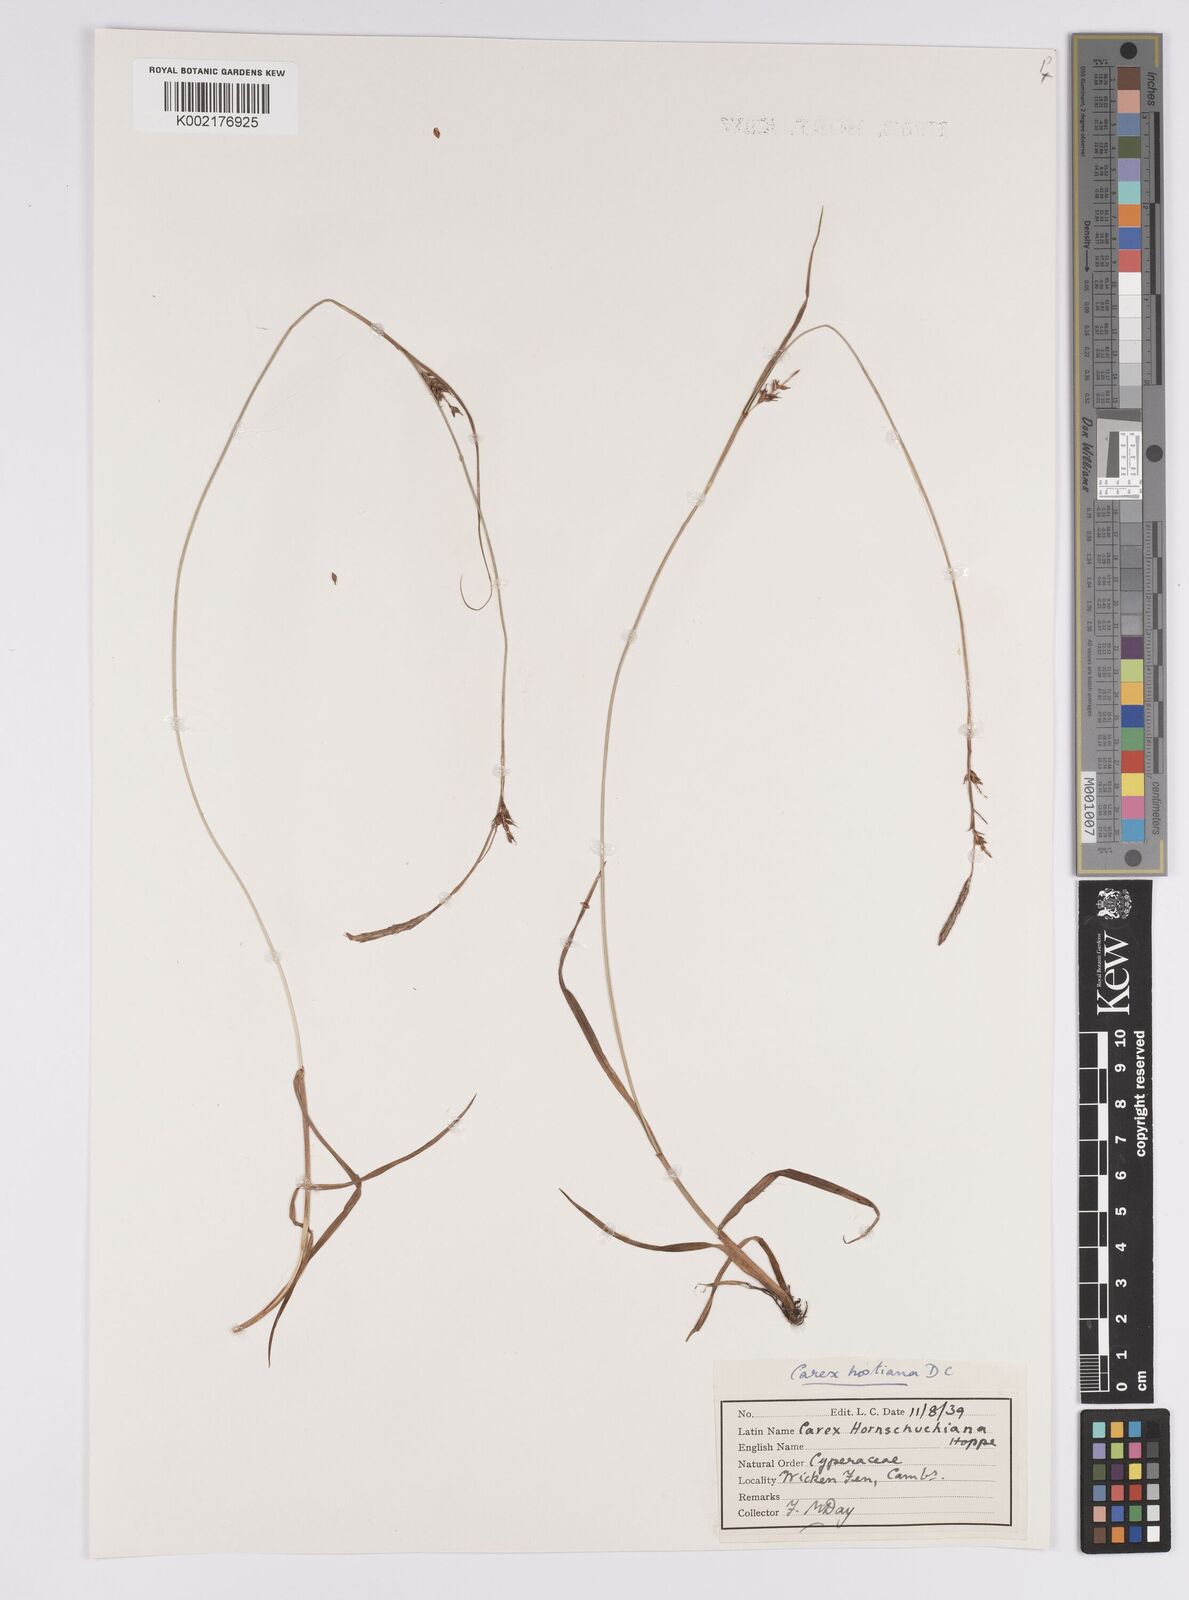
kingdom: Plantae
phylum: Tracheophyta
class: Liliopsida
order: Poales
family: Cyperaceae
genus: Carex
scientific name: Carex hostiana
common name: Tawny sedge
